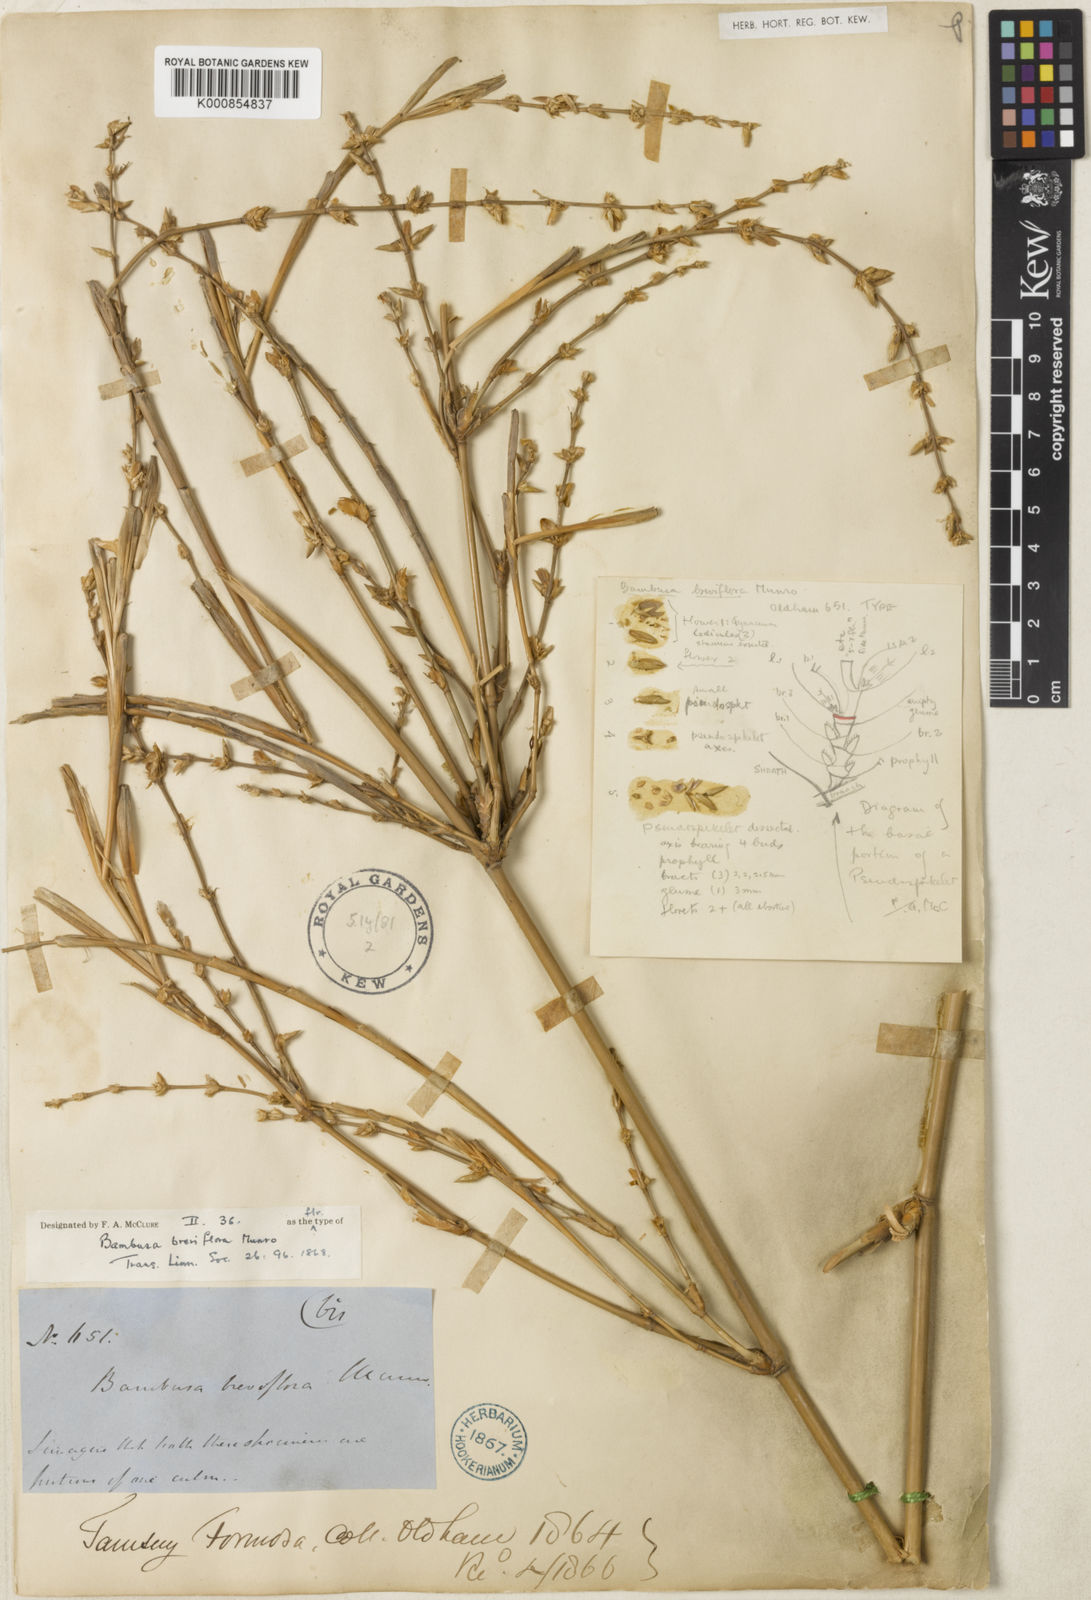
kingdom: Plantae
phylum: Tracheophyta
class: Liliopsida
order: Poales
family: Poaceae
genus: Bambusa
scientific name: Bambusa tuldoides
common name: Verdant bamboo
